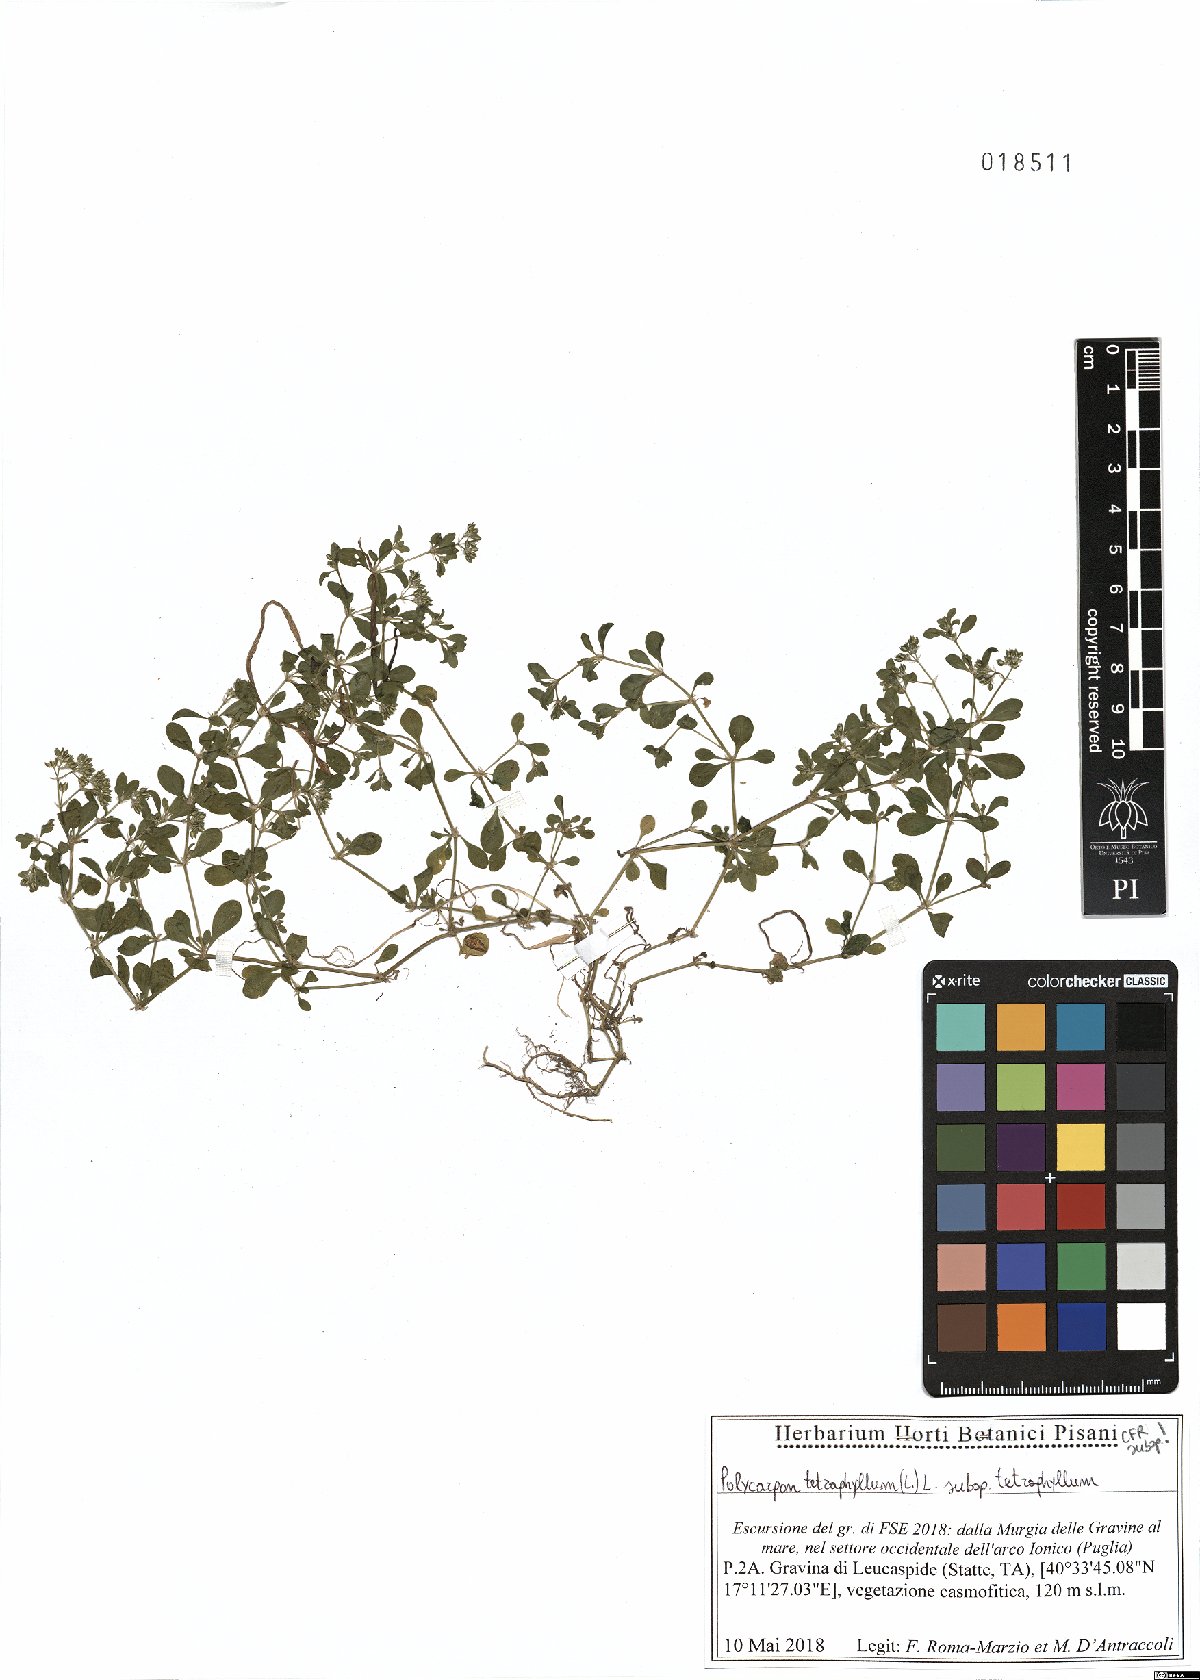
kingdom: Plantae
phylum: Tracheophyta
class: Magnoliopsida
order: Caryophyllales
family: Caryophyllaceae
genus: Polycarpon
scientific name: Polycarpon tetraphyllum
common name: Four-leaved all-seed
